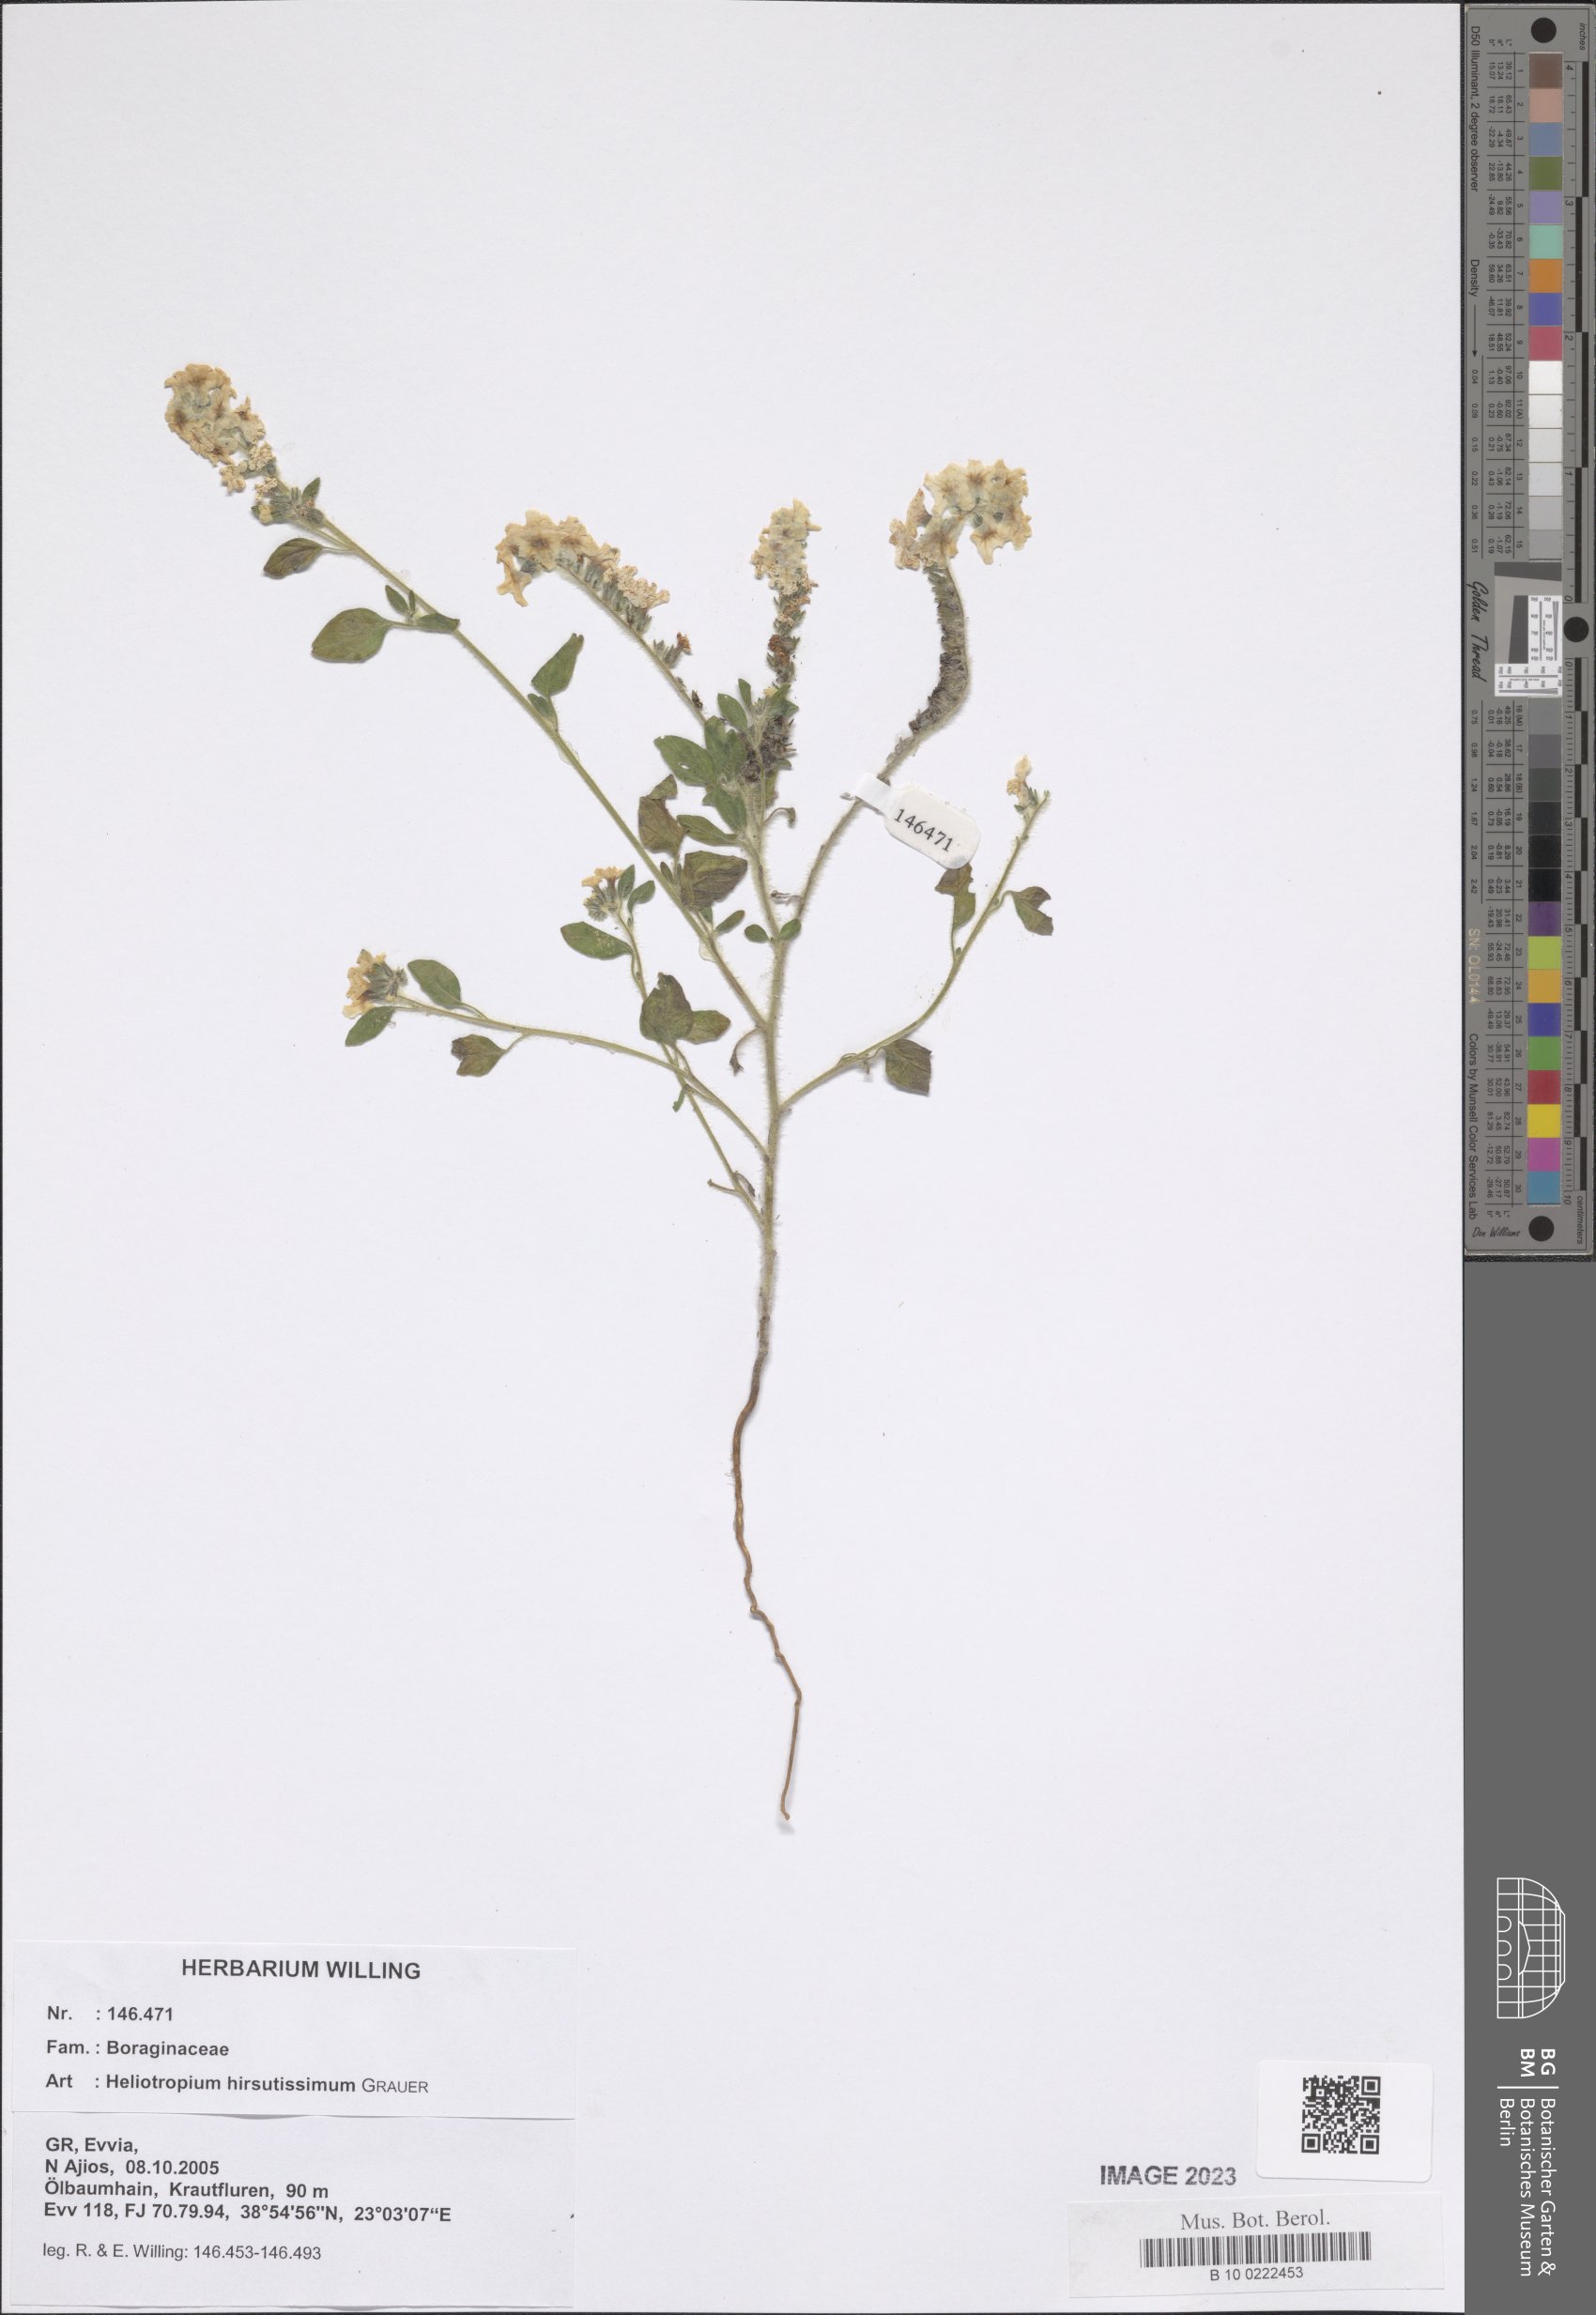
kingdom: Plantae
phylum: Tracheophyta
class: Magnoliopsida
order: Boraginales
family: Heliotropiaceae
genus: Heliotropium
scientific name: Heliotropium hirsutissimum
